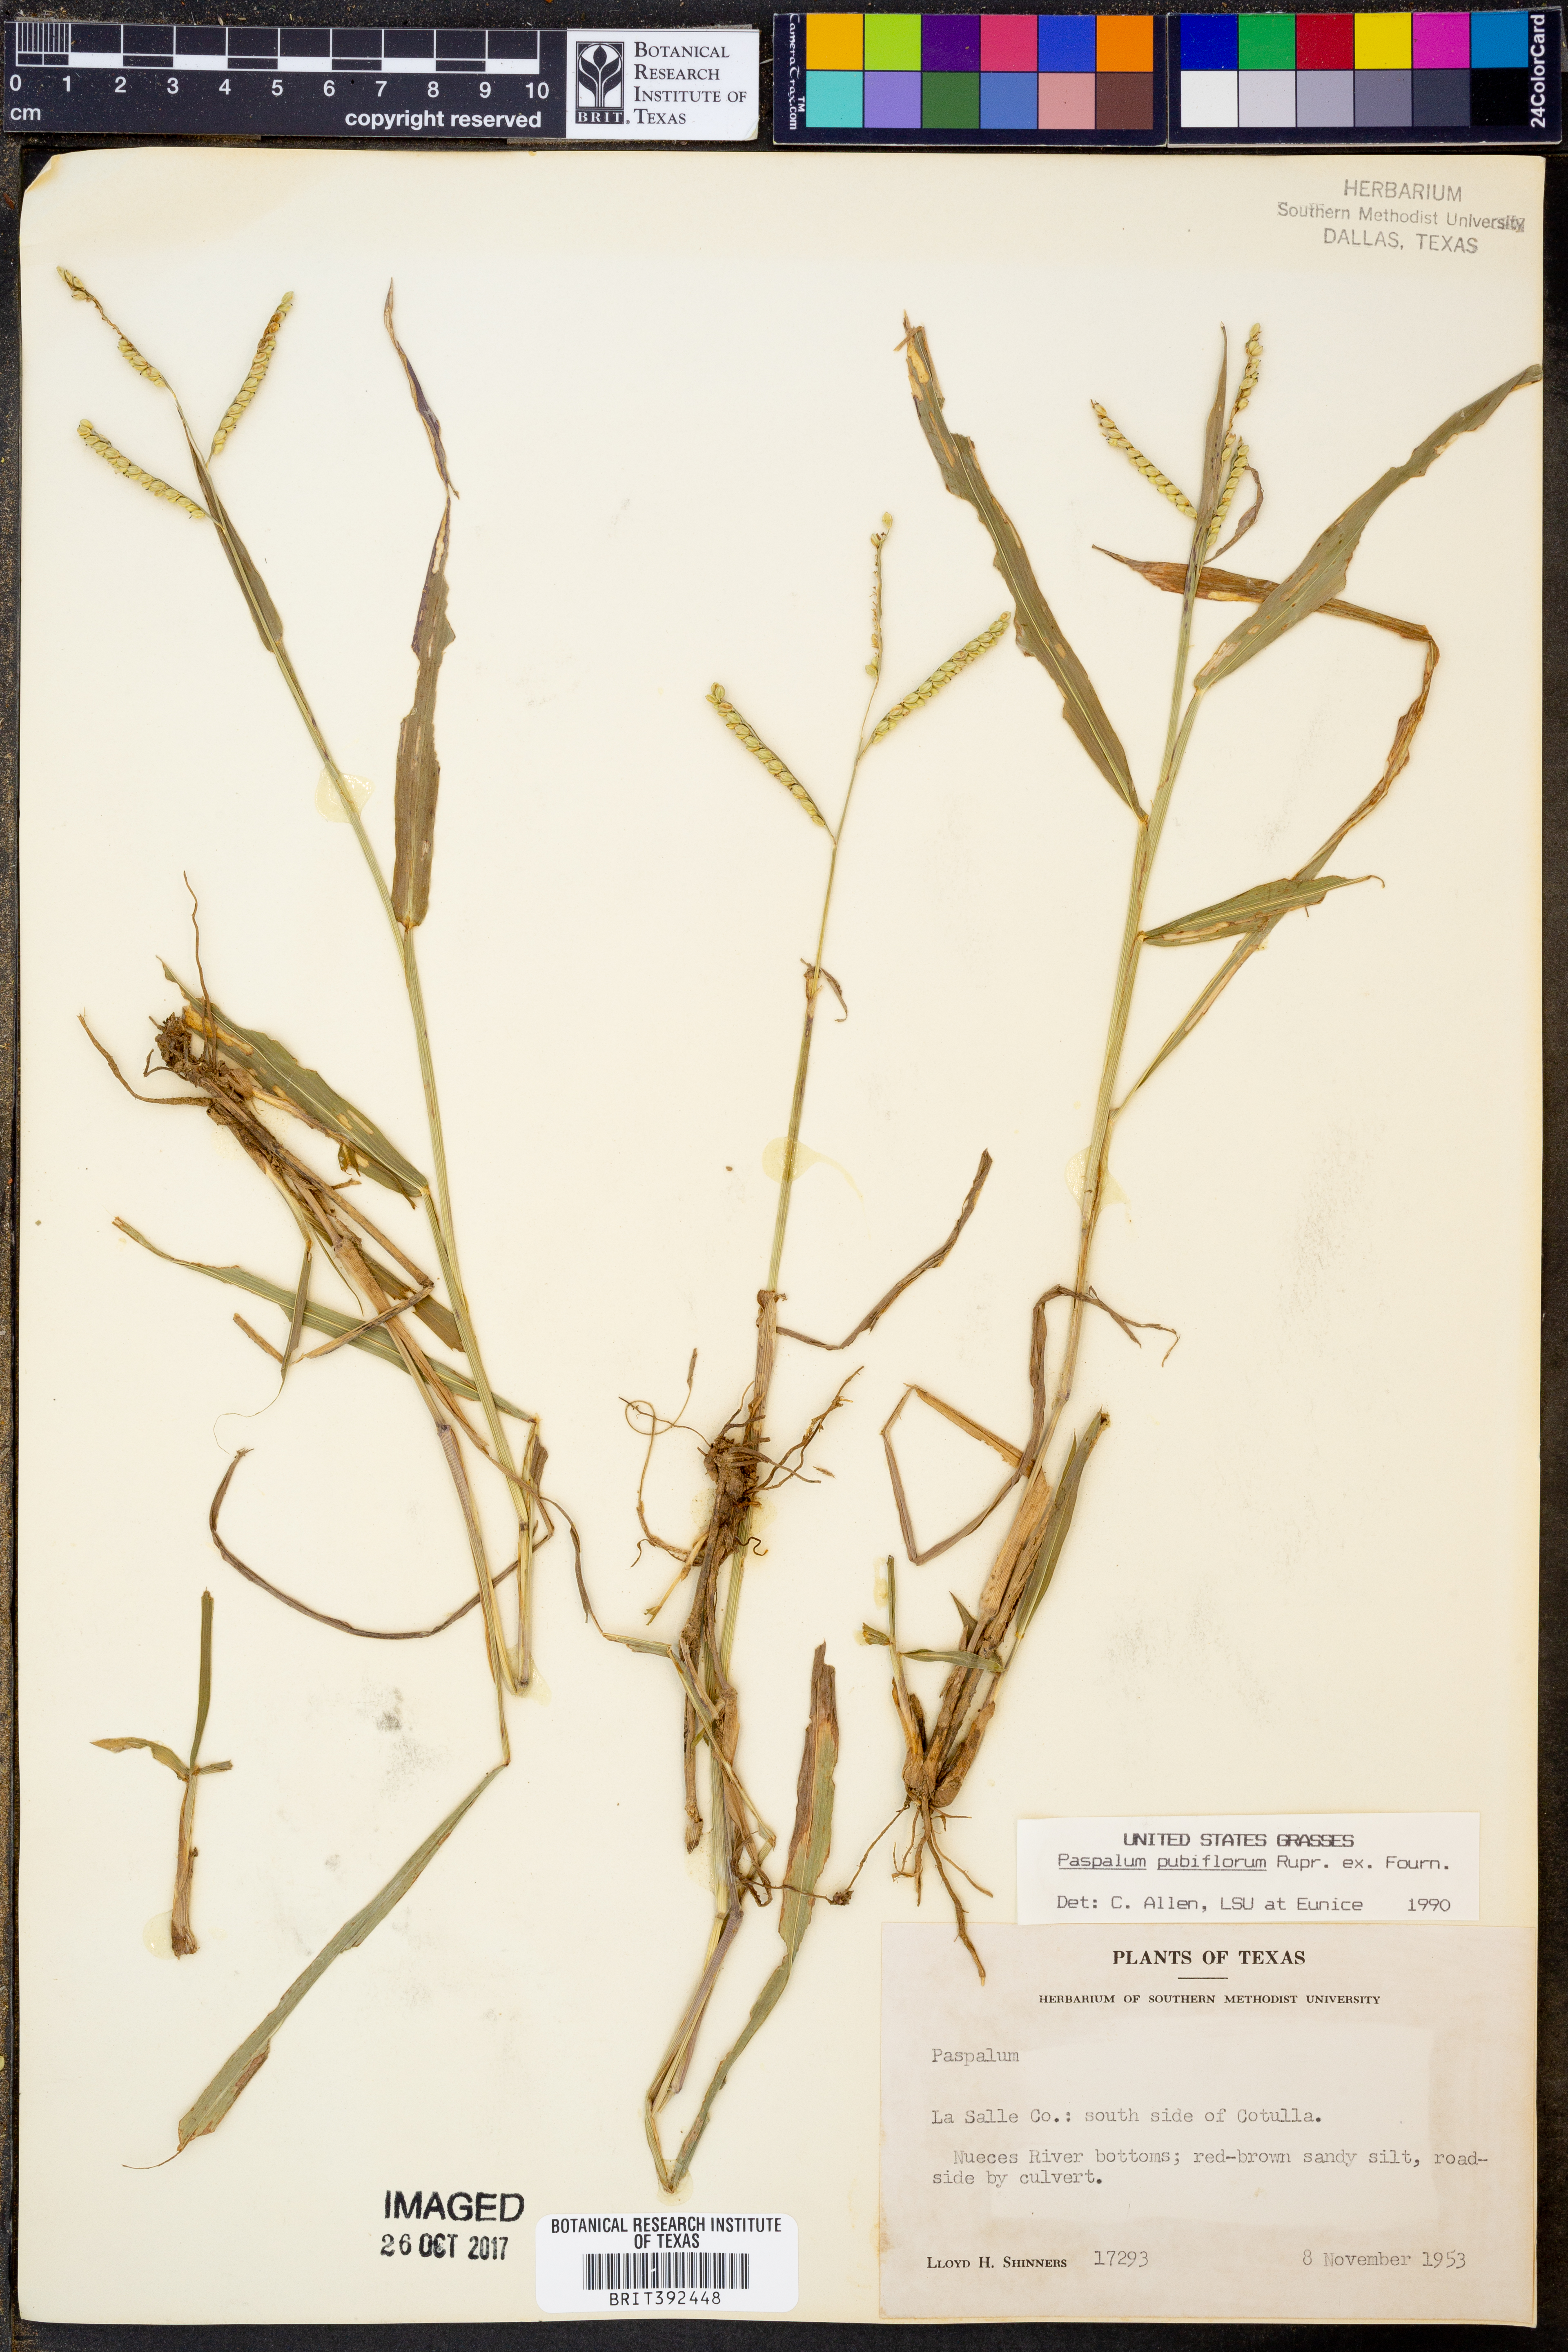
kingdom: Plantae
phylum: Tracheophyta
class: Liliopsida
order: Poales
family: Poaceae
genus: Paspalum
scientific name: Paspalum pubiflorum
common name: Hairy-seed paspalum
